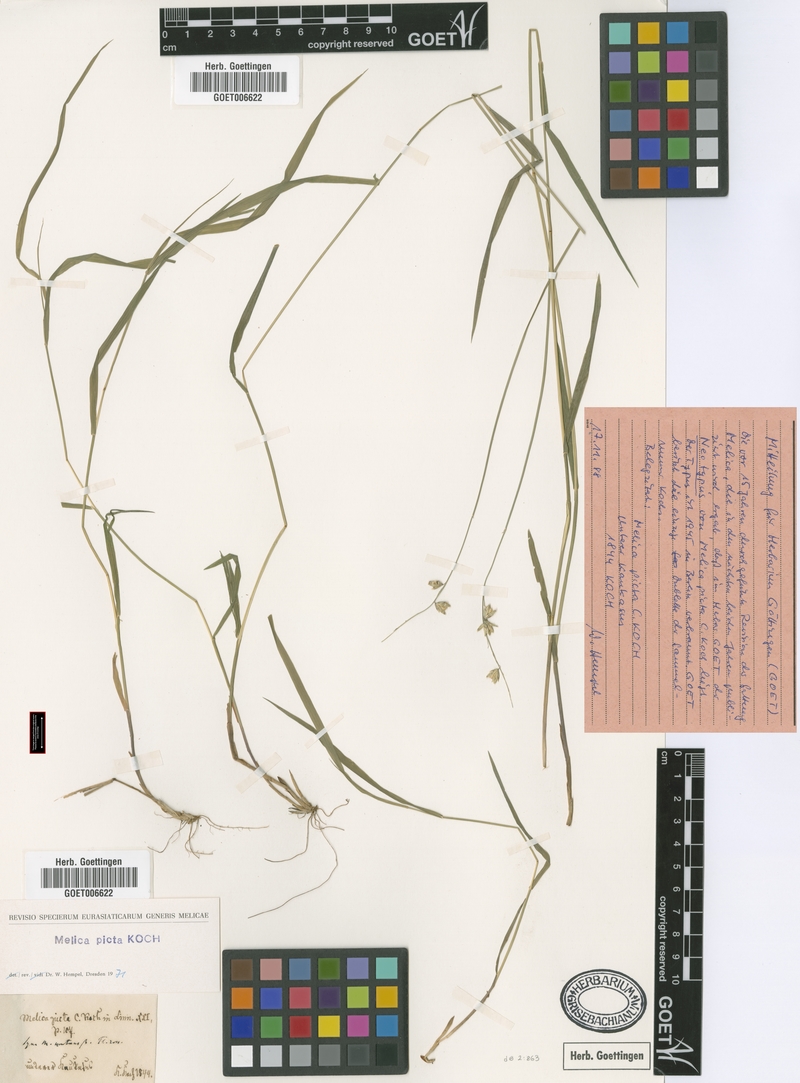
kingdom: Plantae
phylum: Tracheophyta
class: Liliopsida
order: Poales
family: Poaceae
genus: Melica
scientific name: Melica picta
